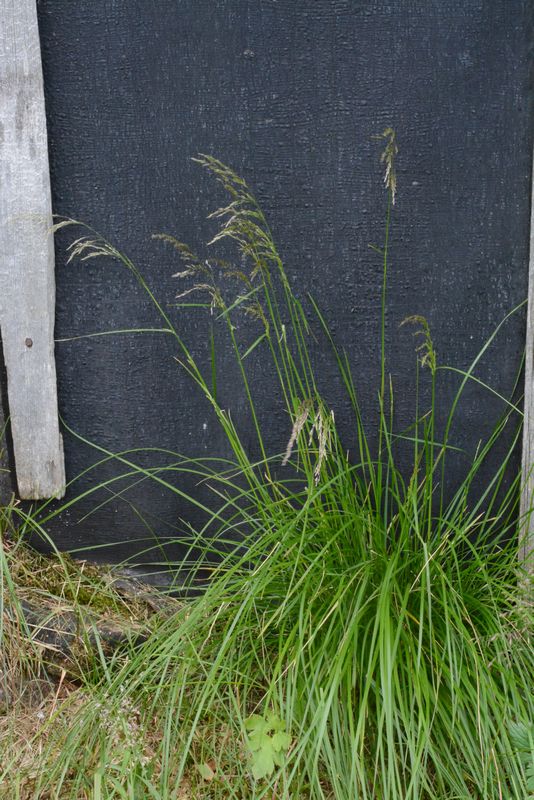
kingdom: Plantae
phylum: Tracheophyta
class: Liliopsida
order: Poales
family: Poaceae
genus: Deschampsia
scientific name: Deschampsia cespitosa
